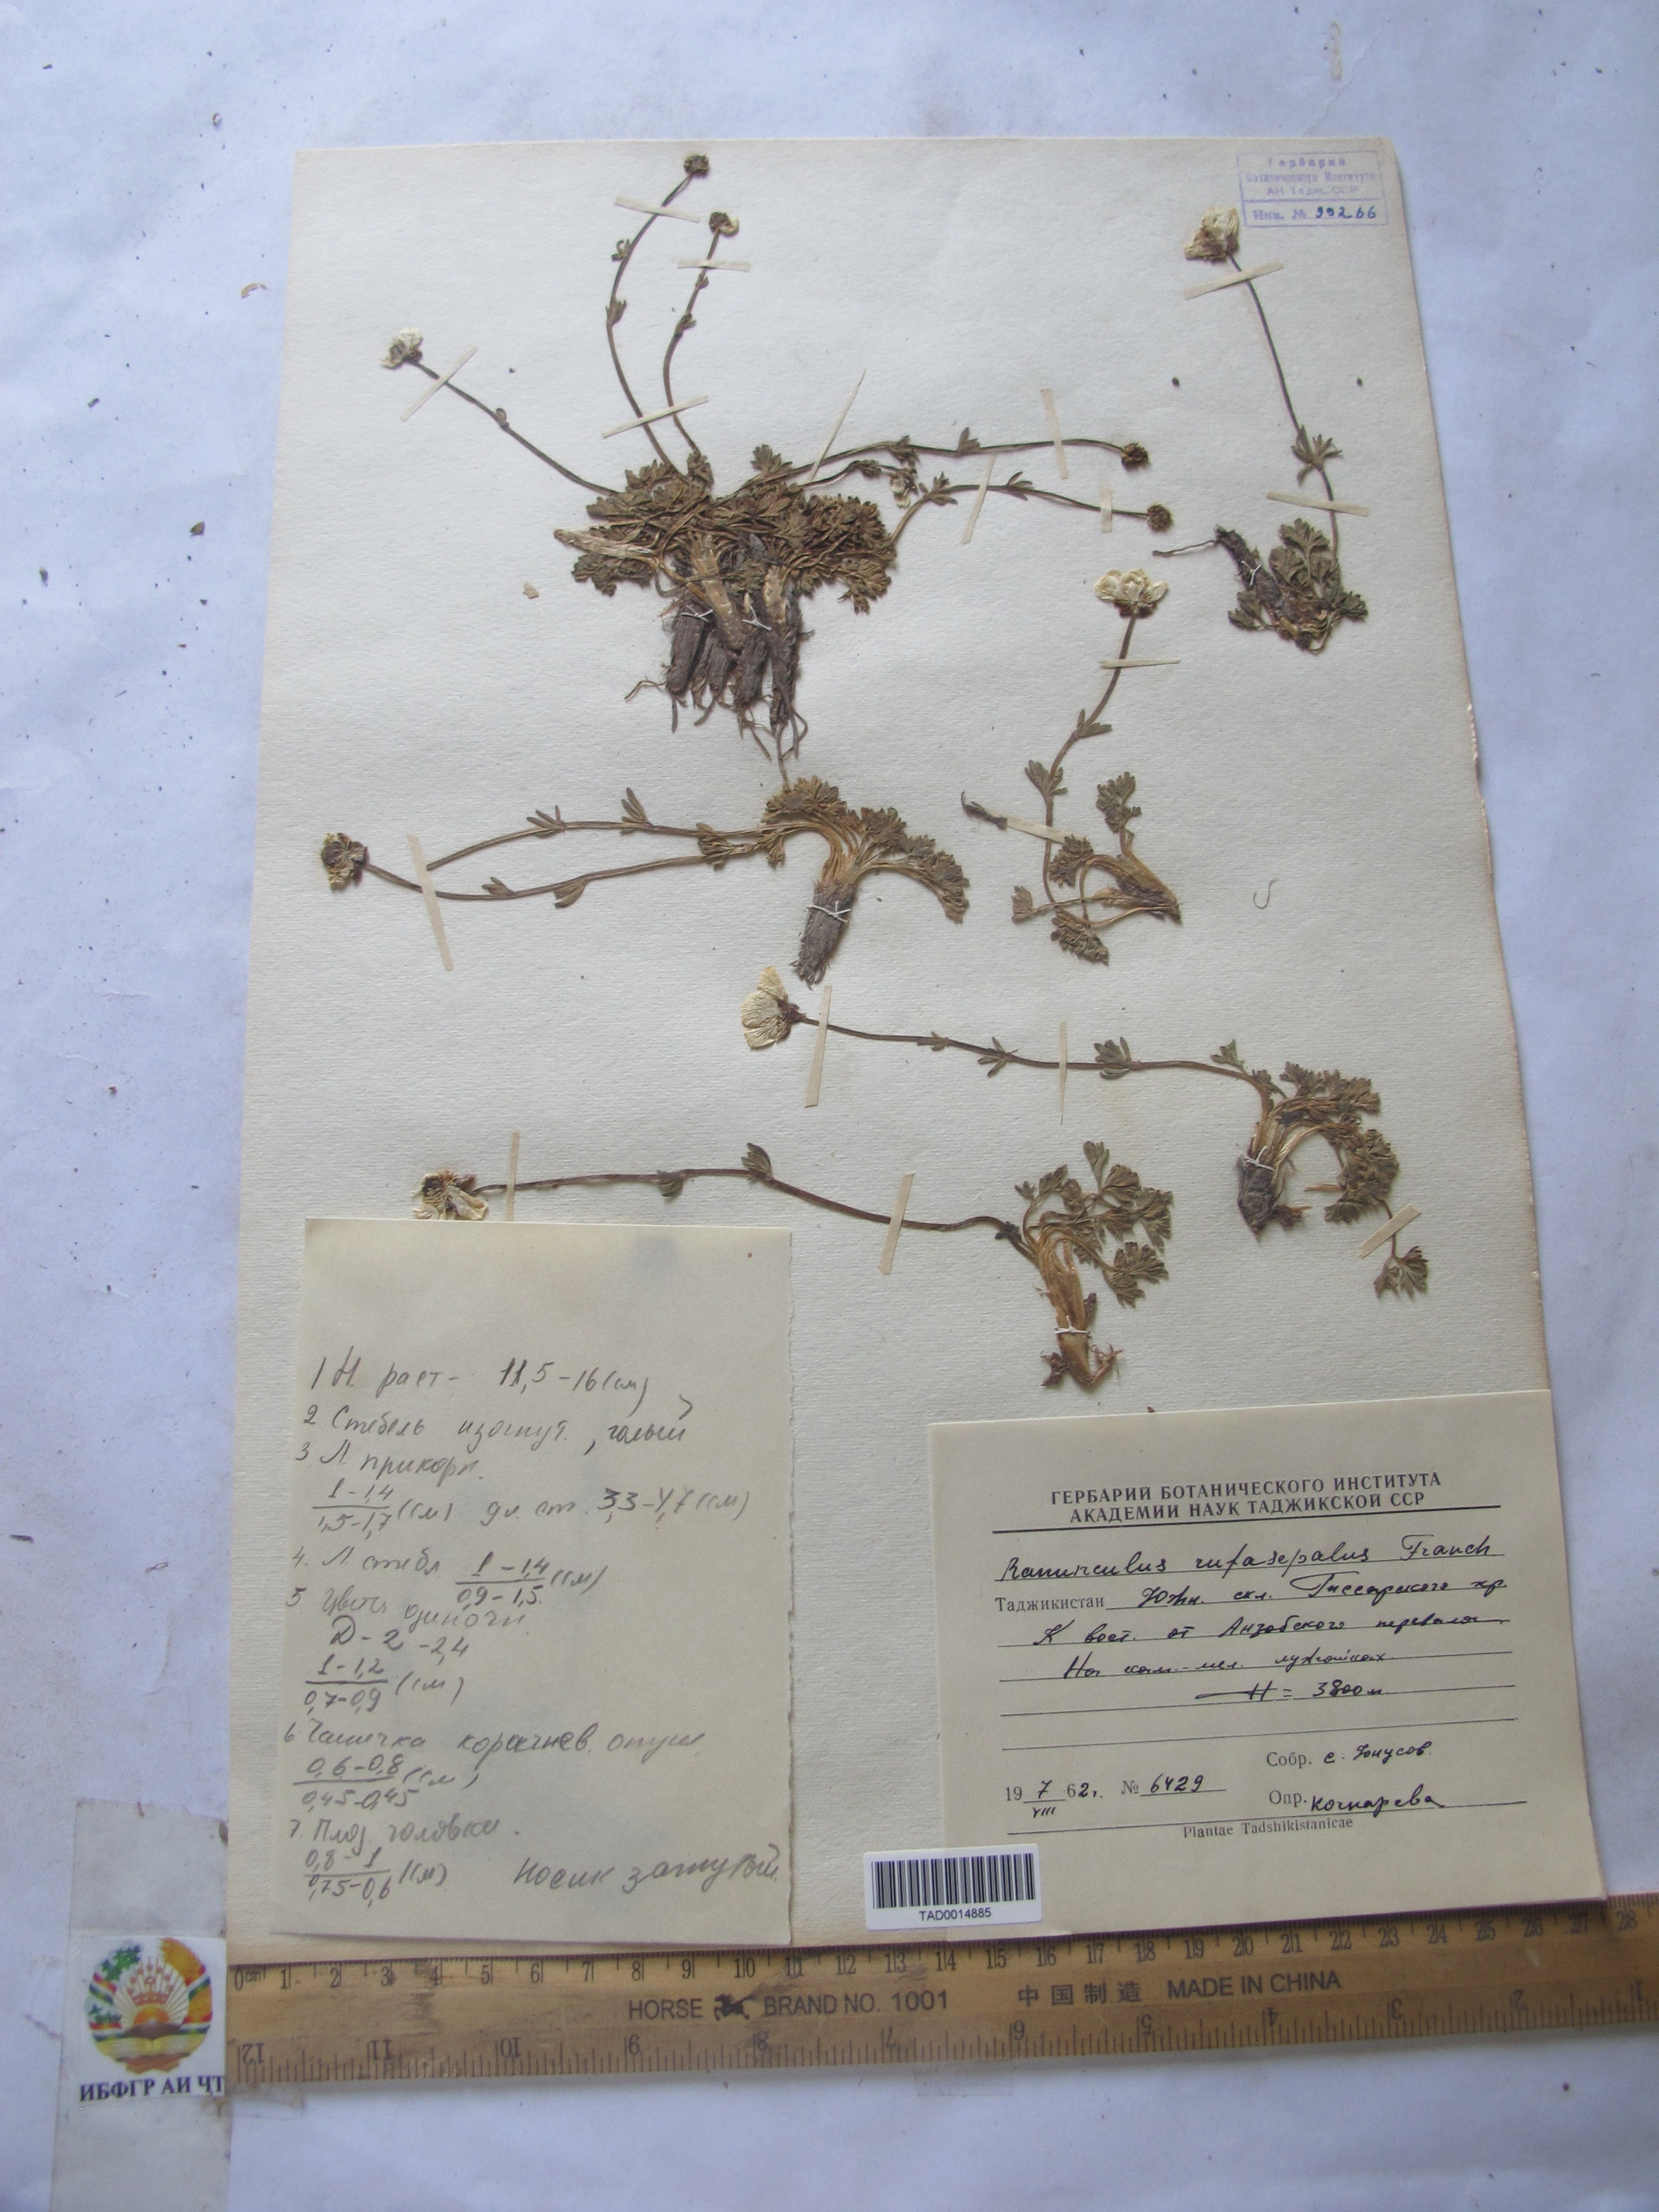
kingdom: Plantae
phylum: Tracheophyta
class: Magnoliopsida
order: Ranunculales
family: Ranunculaceae
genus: Ranunculus
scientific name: Ranunculus rufosepalus
